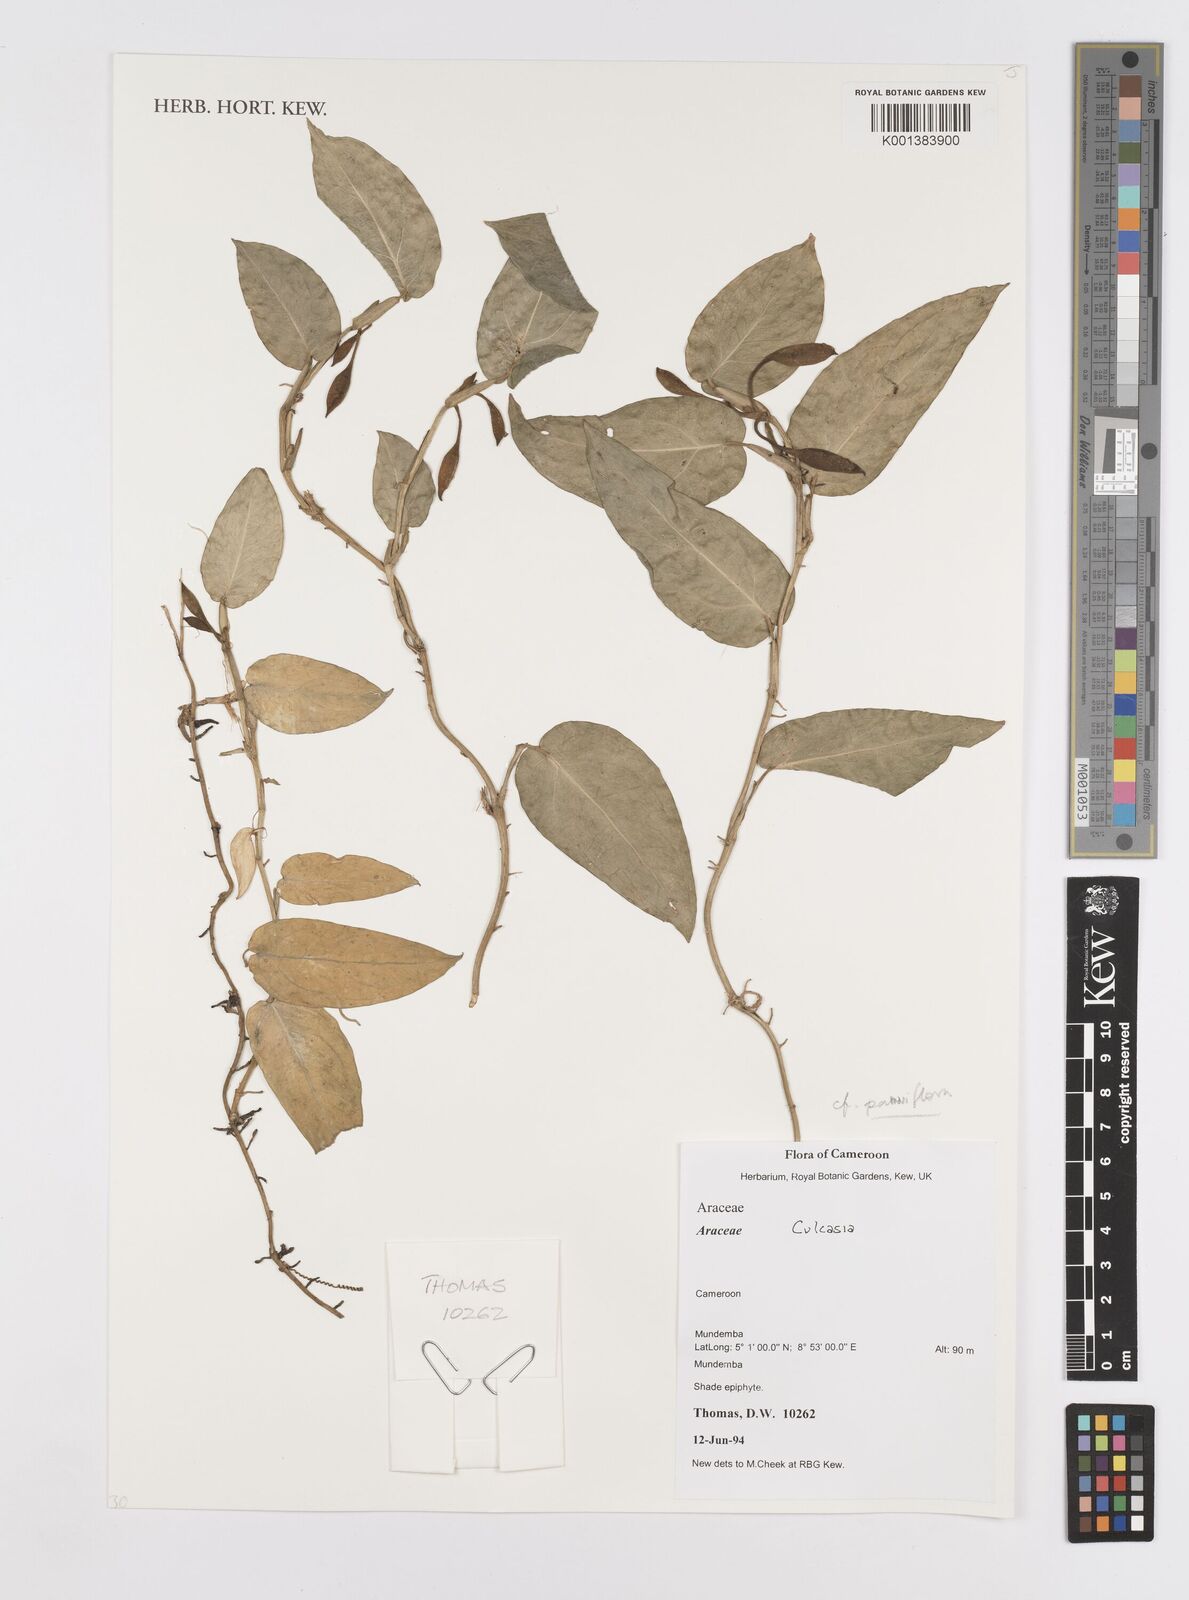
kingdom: Plantae
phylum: Tracheophyta
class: Liliopsida
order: Alismatales
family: Araceae
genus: Culcasia
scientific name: Culcasia parviflora
